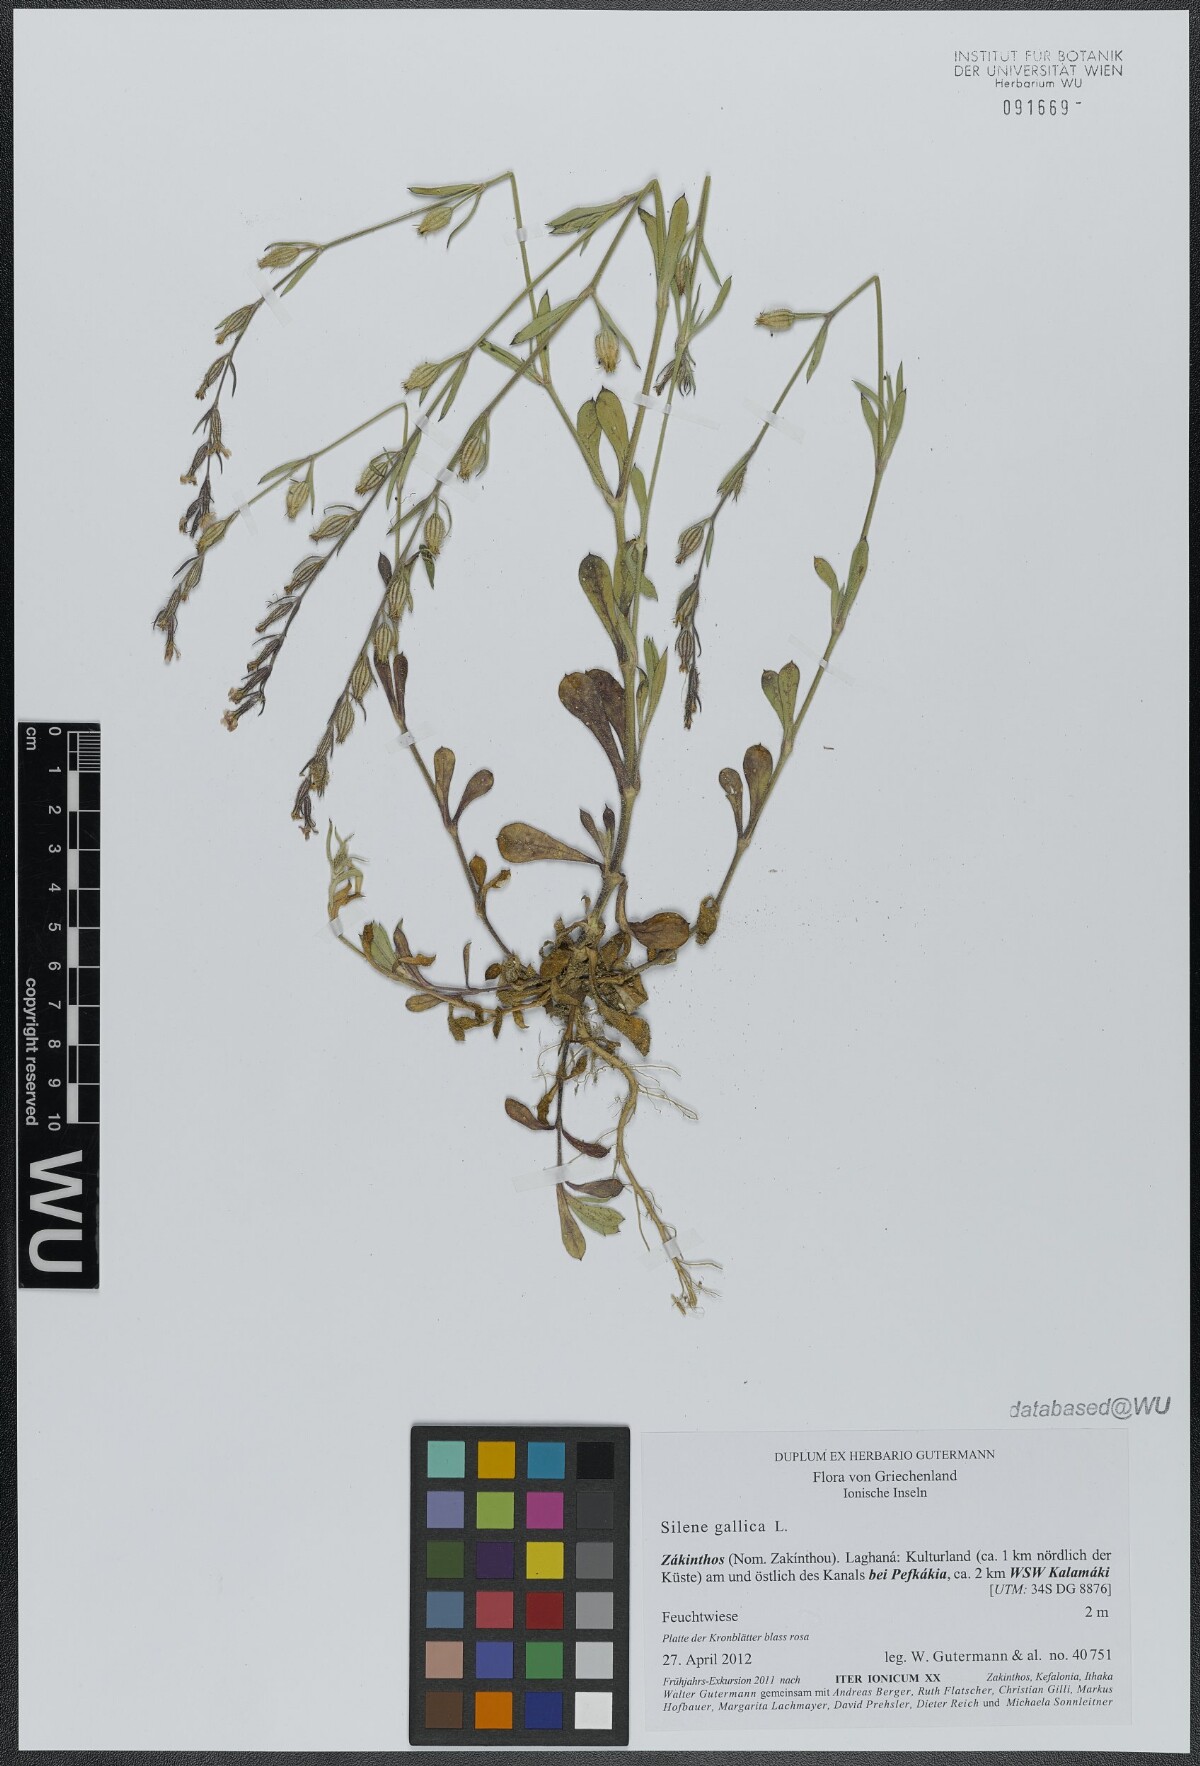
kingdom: Plantae
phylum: Tracheophyta
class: Magnoliopsida
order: Caryophyllales
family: Caryophyllaceae
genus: Silene
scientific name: Silene gallica
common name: Small-flowered catchfly
